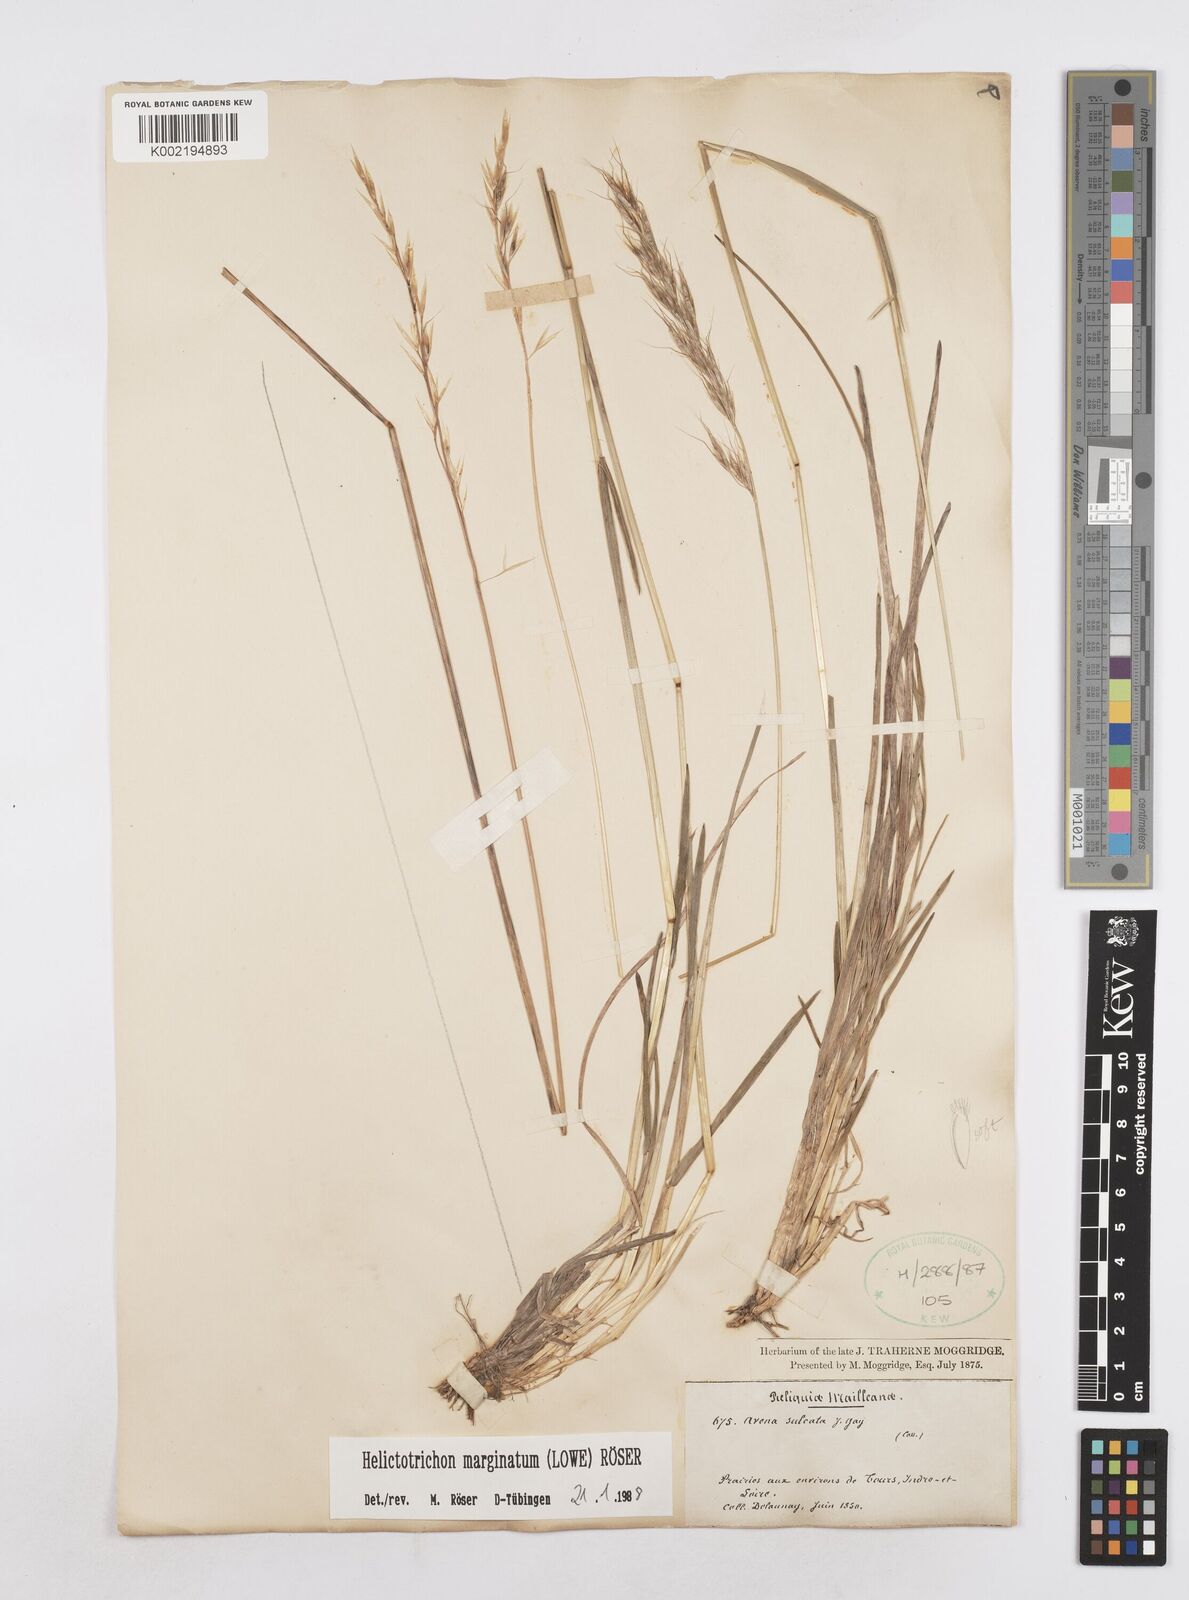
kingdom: Plantae
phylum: Tracheophyta
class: Liliopsida
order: Poales
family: Poaceae
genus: Helictotrichon
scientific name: Helictotrichon
